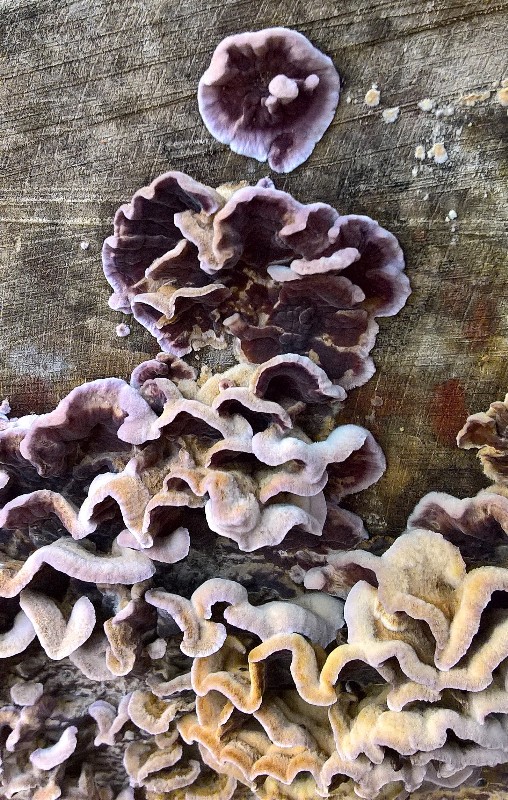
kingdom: Fungi
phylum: Basidiomycota
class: Agaricomycetes
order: Agaricales
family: Cyphellaceae
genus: Chondrostereum
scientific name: Chondrostereum purpureum
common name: purpurlædersvamp
